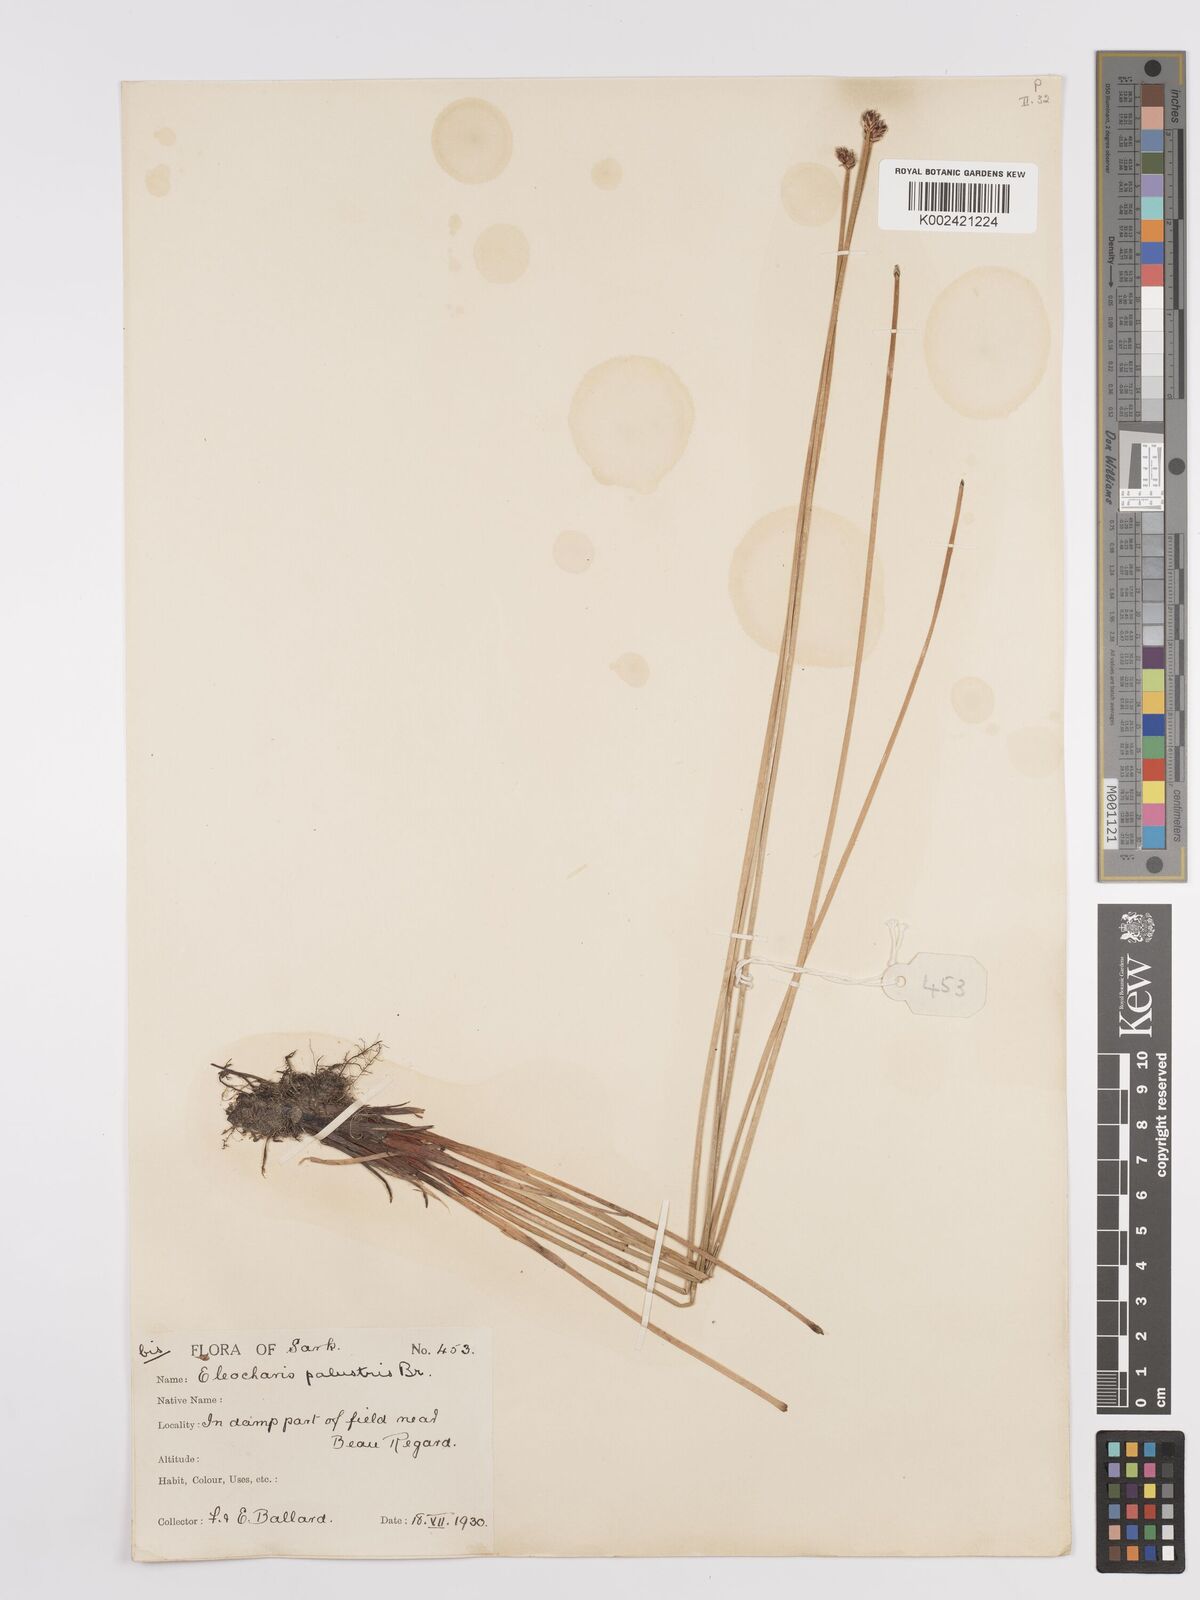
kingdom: Plantae
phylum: Tracheophyta
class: Liliopsida
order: Poales
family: Cyperaceae
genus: Eleocharis
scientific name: Eleocharis palustris
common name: Common spike-rush
